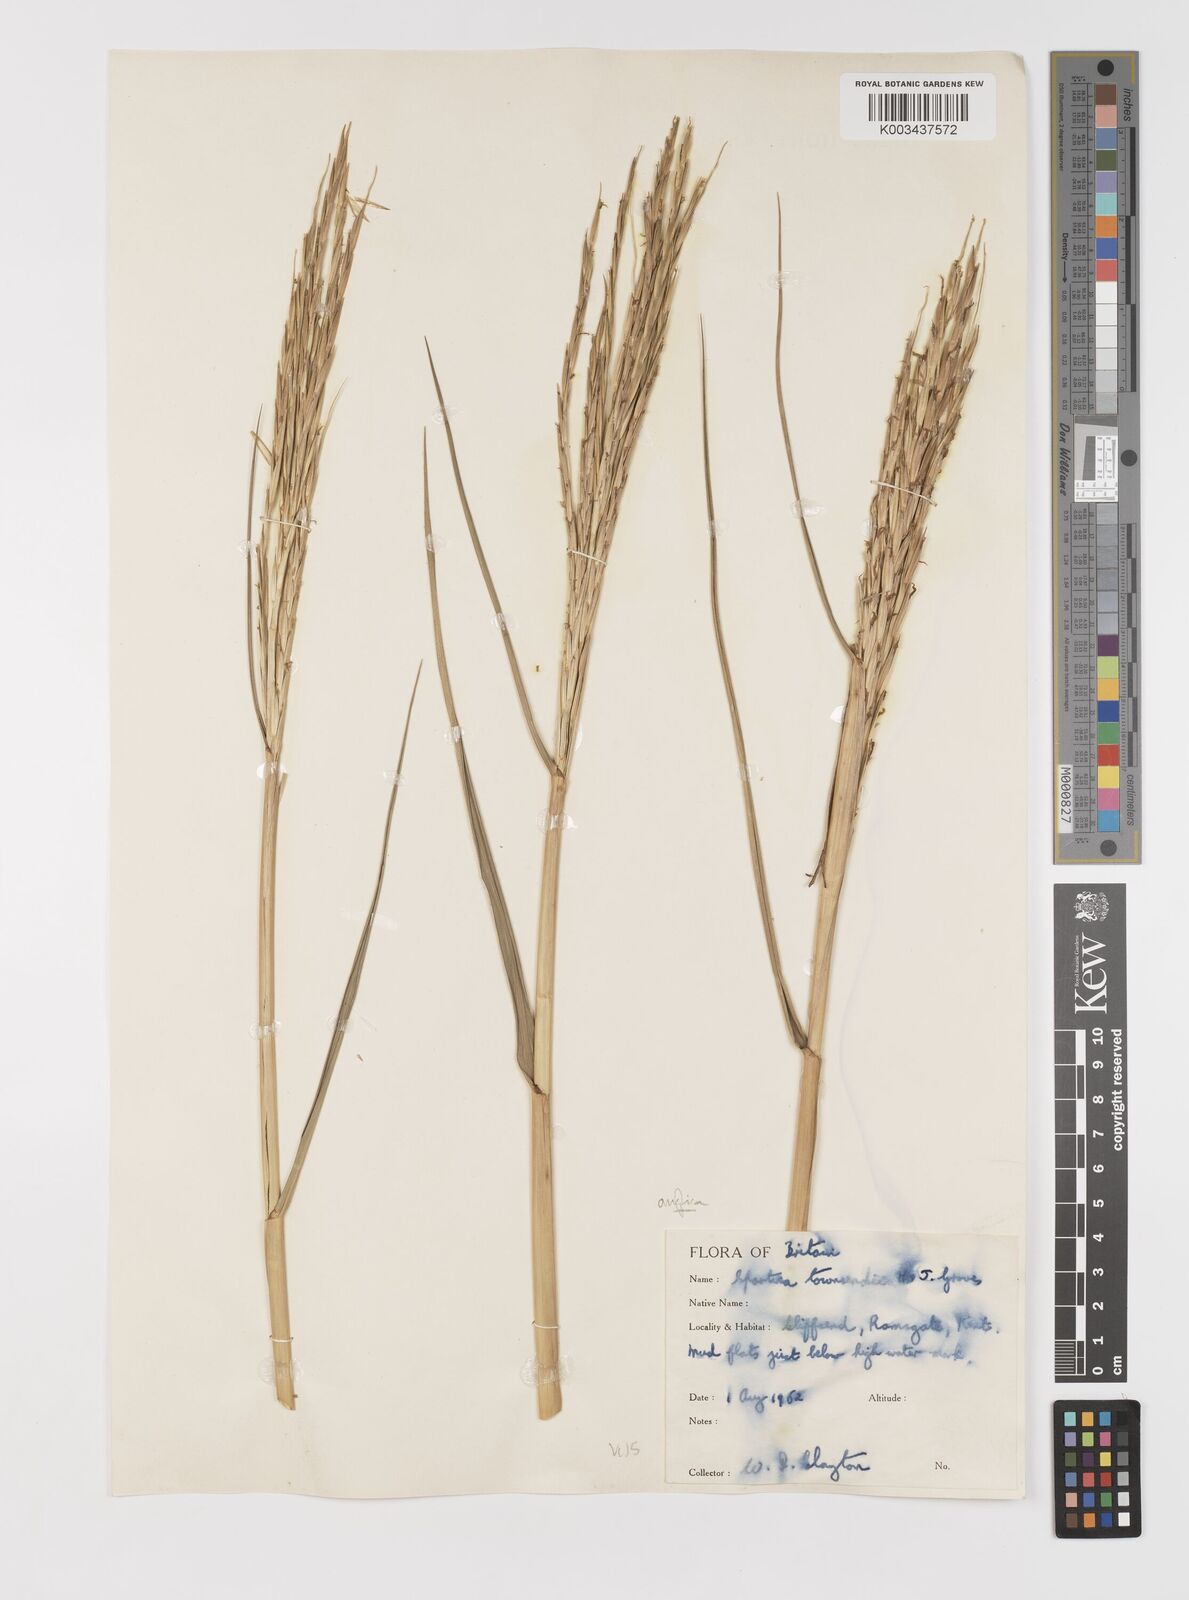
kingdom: Plantae
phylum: Tracheophyta
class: Liliopsida
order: Poales
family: Poaceae
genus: Sporobolus
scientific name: Sporobolus anglicus
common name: English cordgrass
